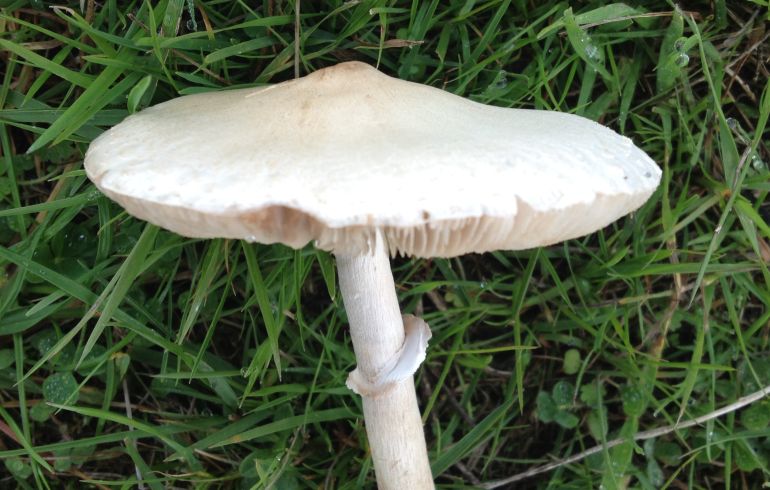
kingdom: Fungi
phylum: Basidiomycota
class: Agaricomycetes
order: Agaricales
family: Agaricaceae
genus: Macrolepiota
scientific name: Macrolepiota excoriata
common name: mark-kæmpeparasolhat
